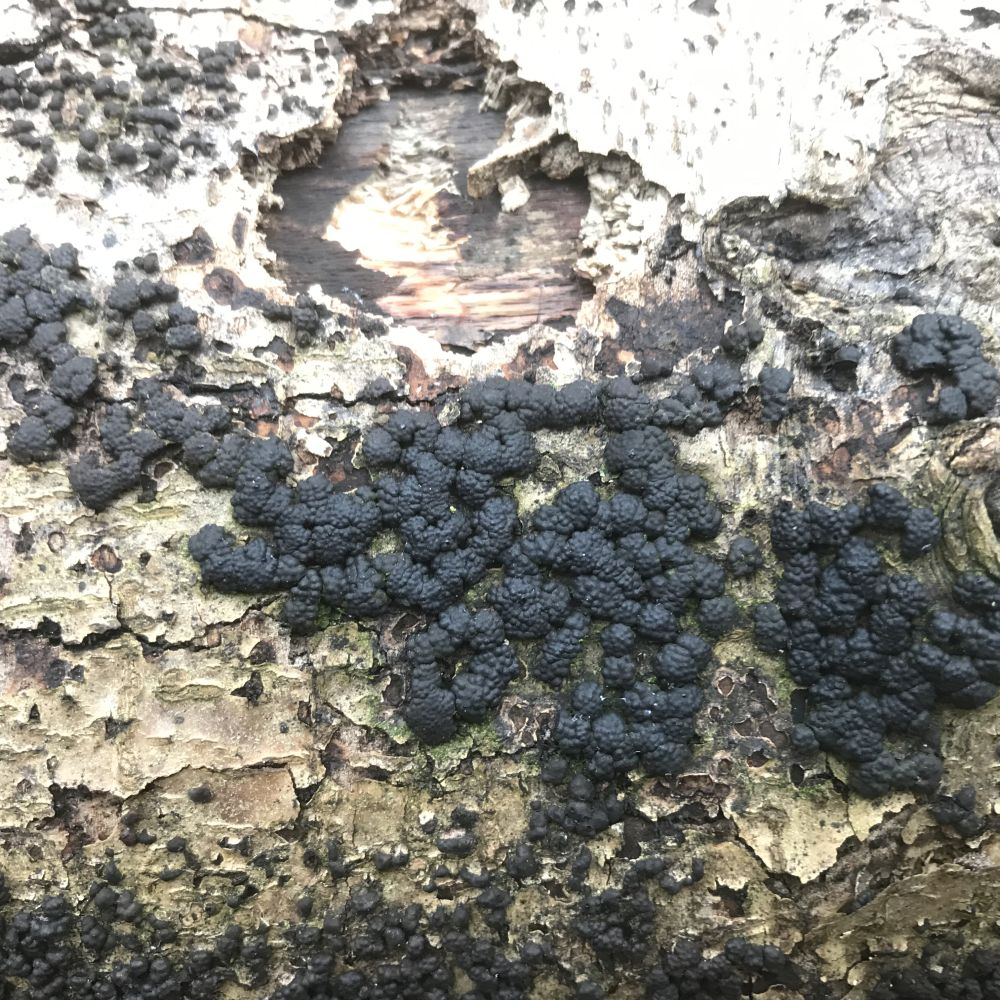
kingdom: Fungi
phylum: Ascomycota
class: Sordariomycetes
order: Xylariales
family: Hypoxylaceae
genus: Jackrogersella
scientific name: Jackrogersella cohaerens
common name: sammenflydende kulbær
